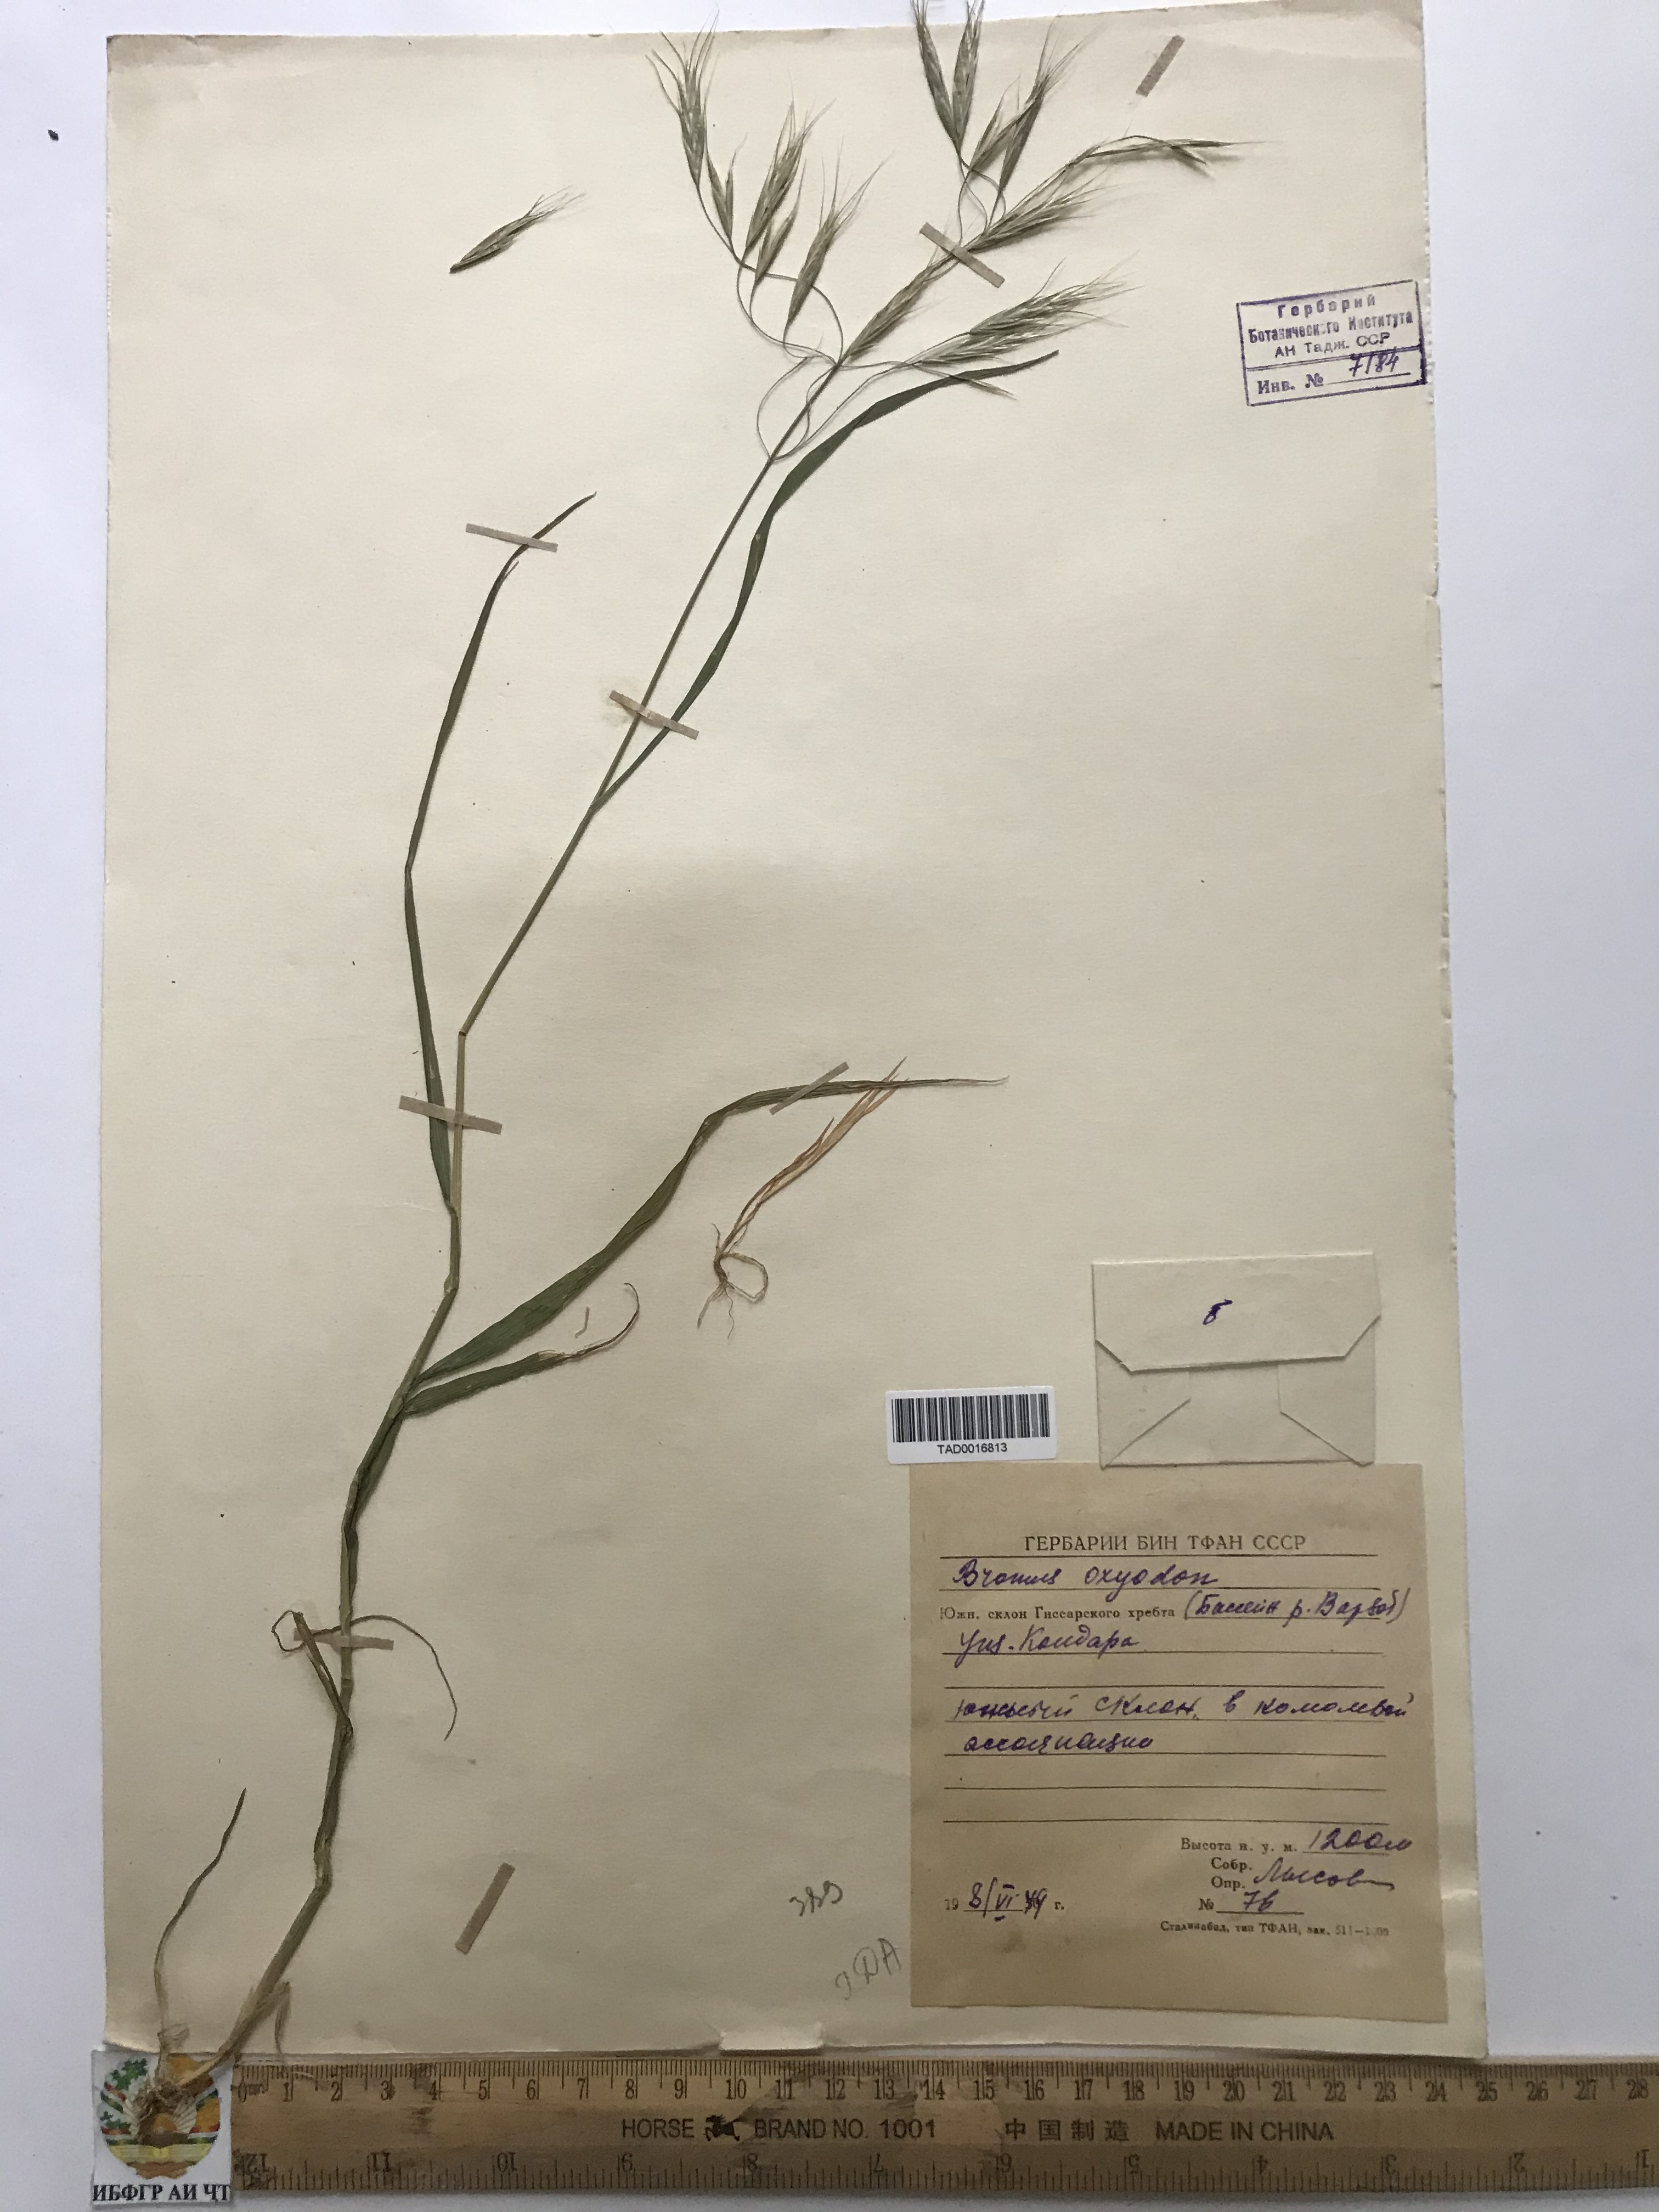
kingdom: Plantae
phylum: Tracheophyta
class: Liliopsida
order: Poales
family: Poaceae
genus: Bromus
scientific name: Bromus oxyodon
